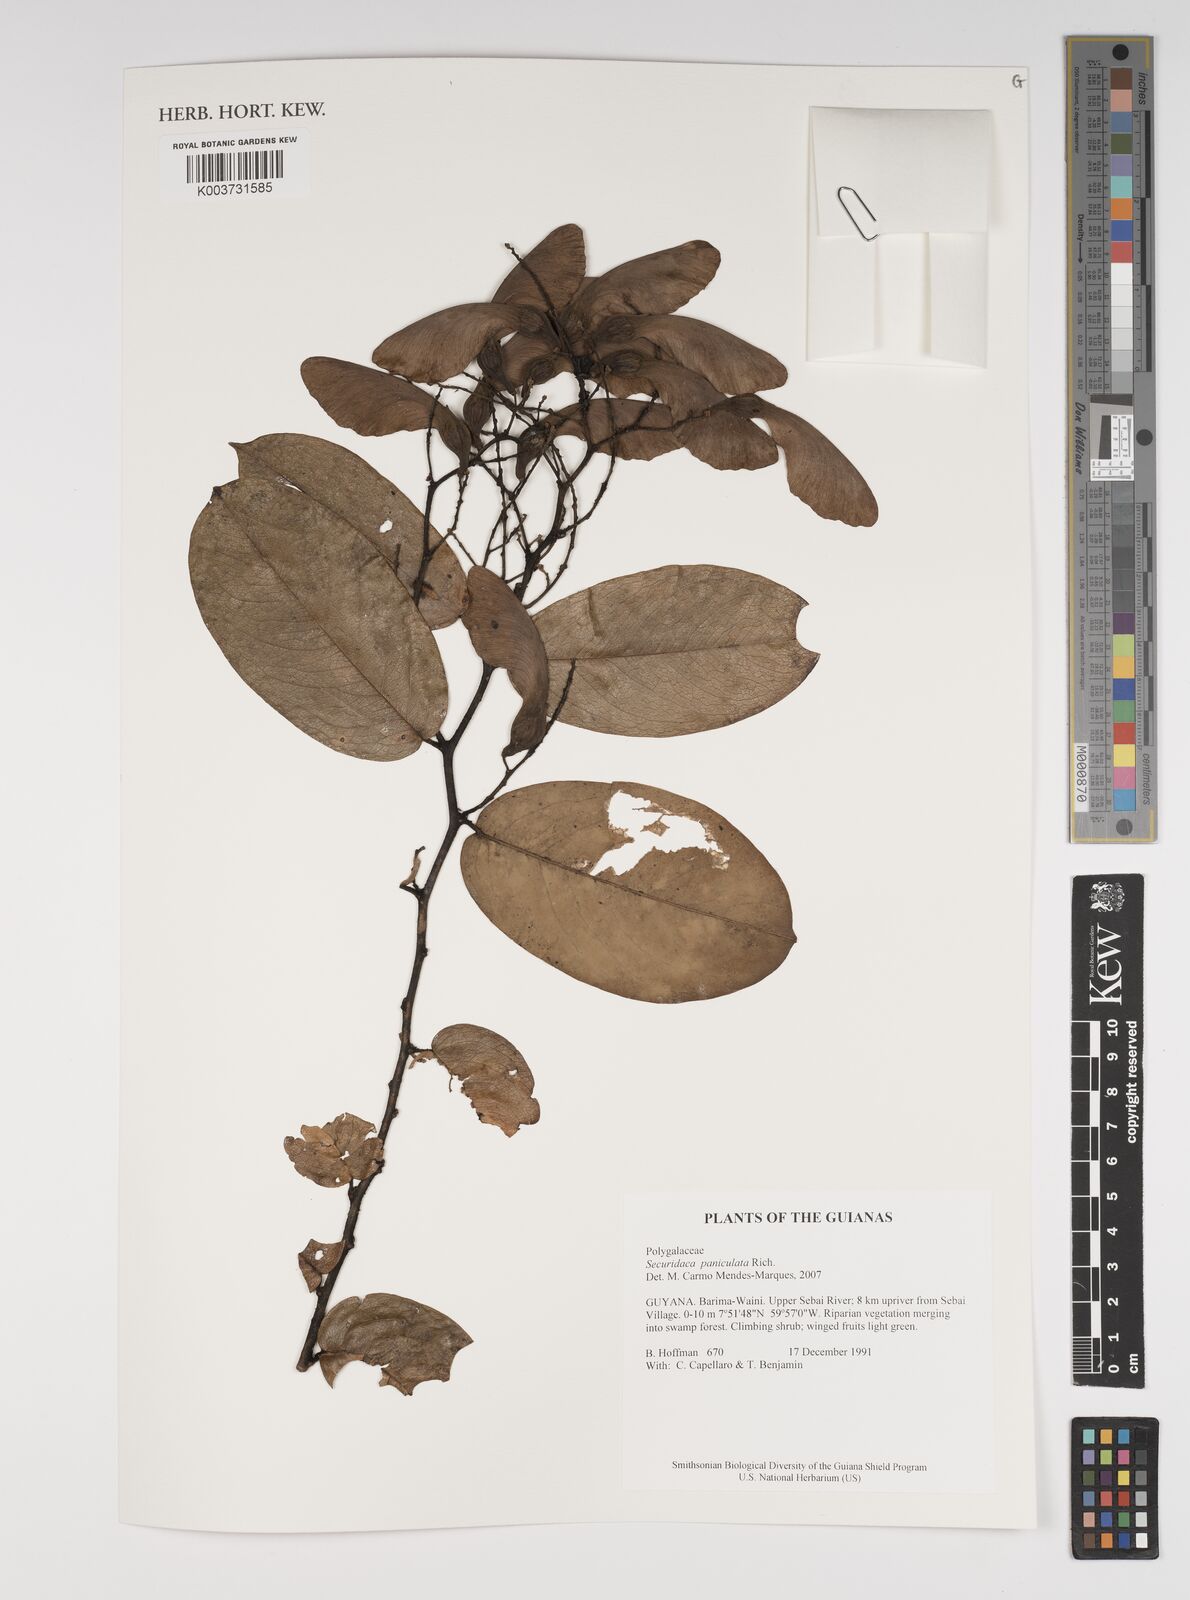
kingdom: Plantae
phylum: Tracheophyta
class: Magnoliopsida
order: Fabales
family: Polygalaceae
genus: Securidaca
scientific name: Securidaca paniculata
